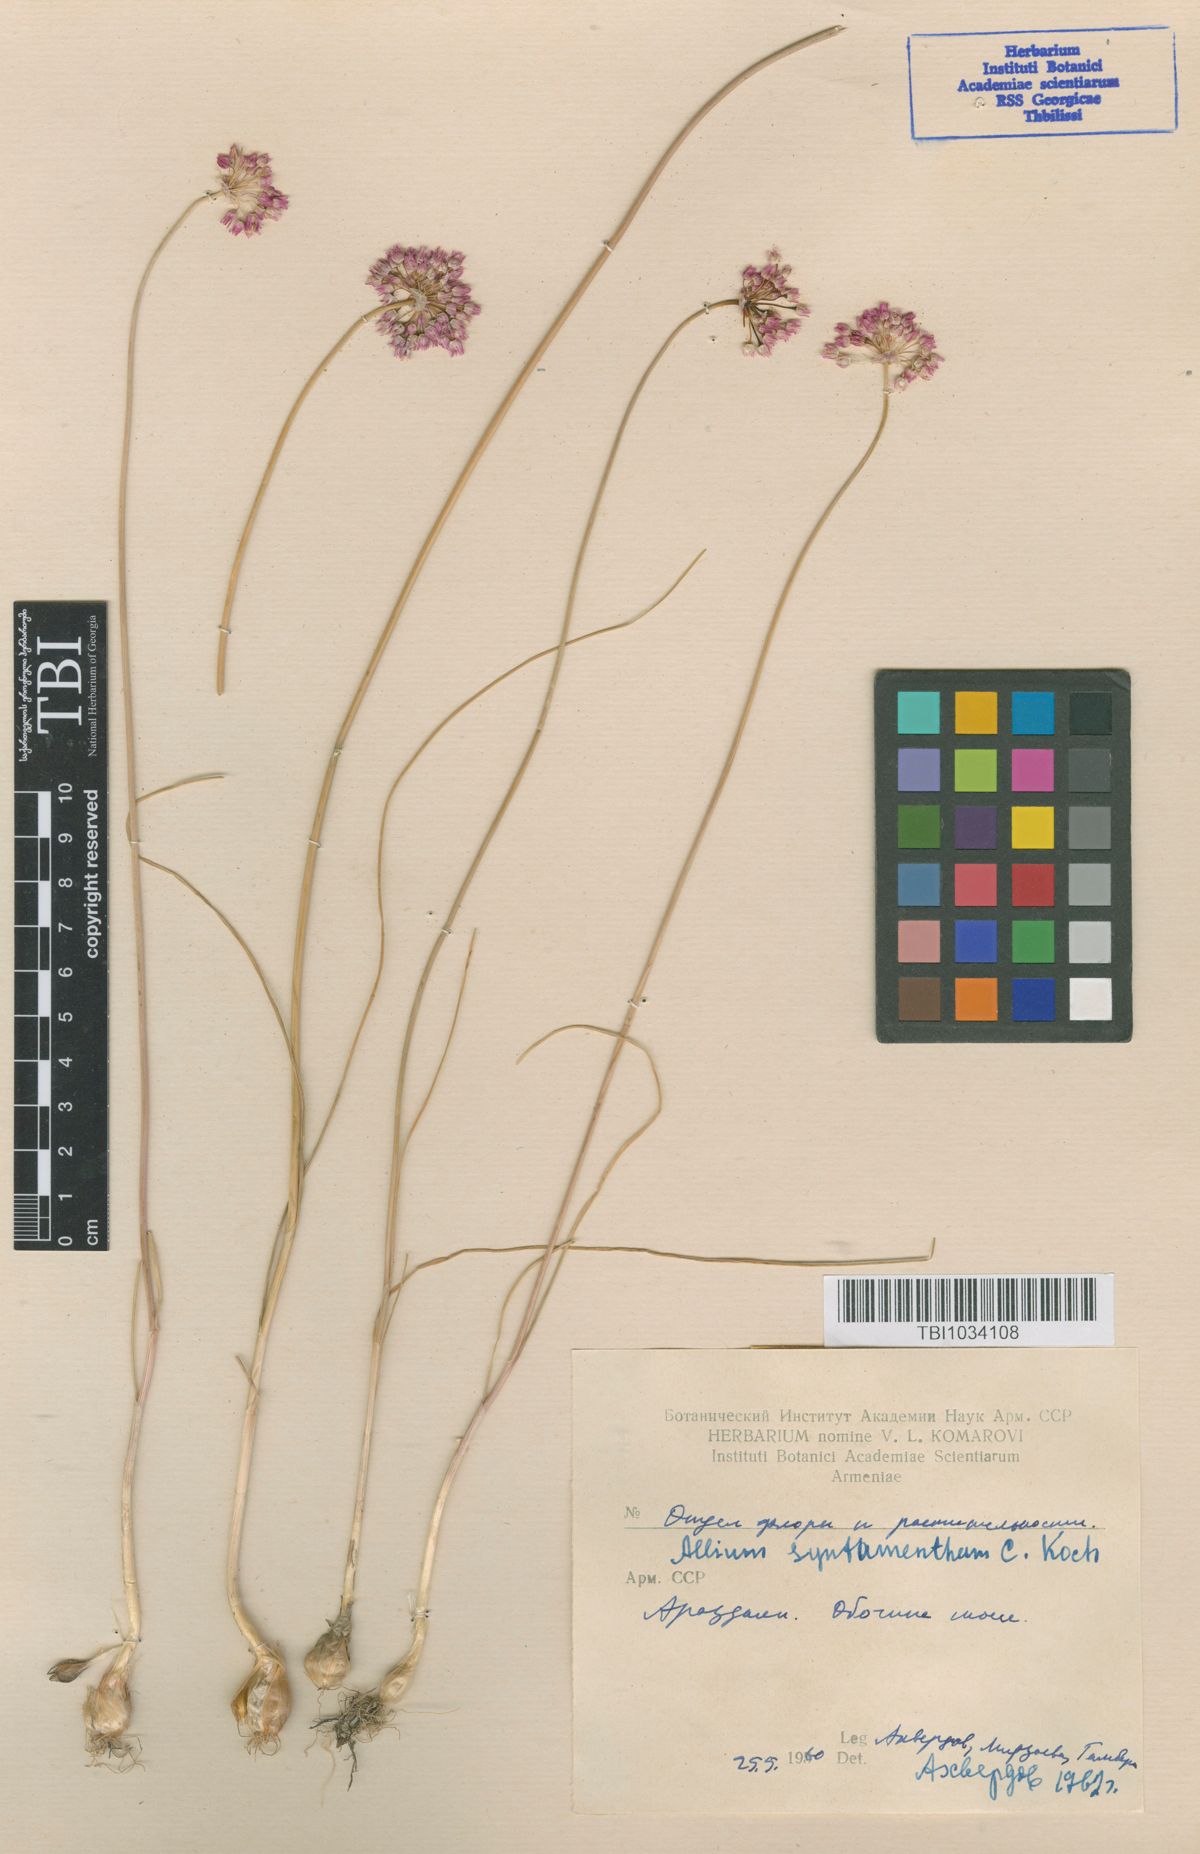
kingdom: Plantae
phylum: Tracheophyta
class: Liliopsida
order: Asparagales
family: Amaryllidaceae
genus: Allium
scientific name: Allium rubellum
